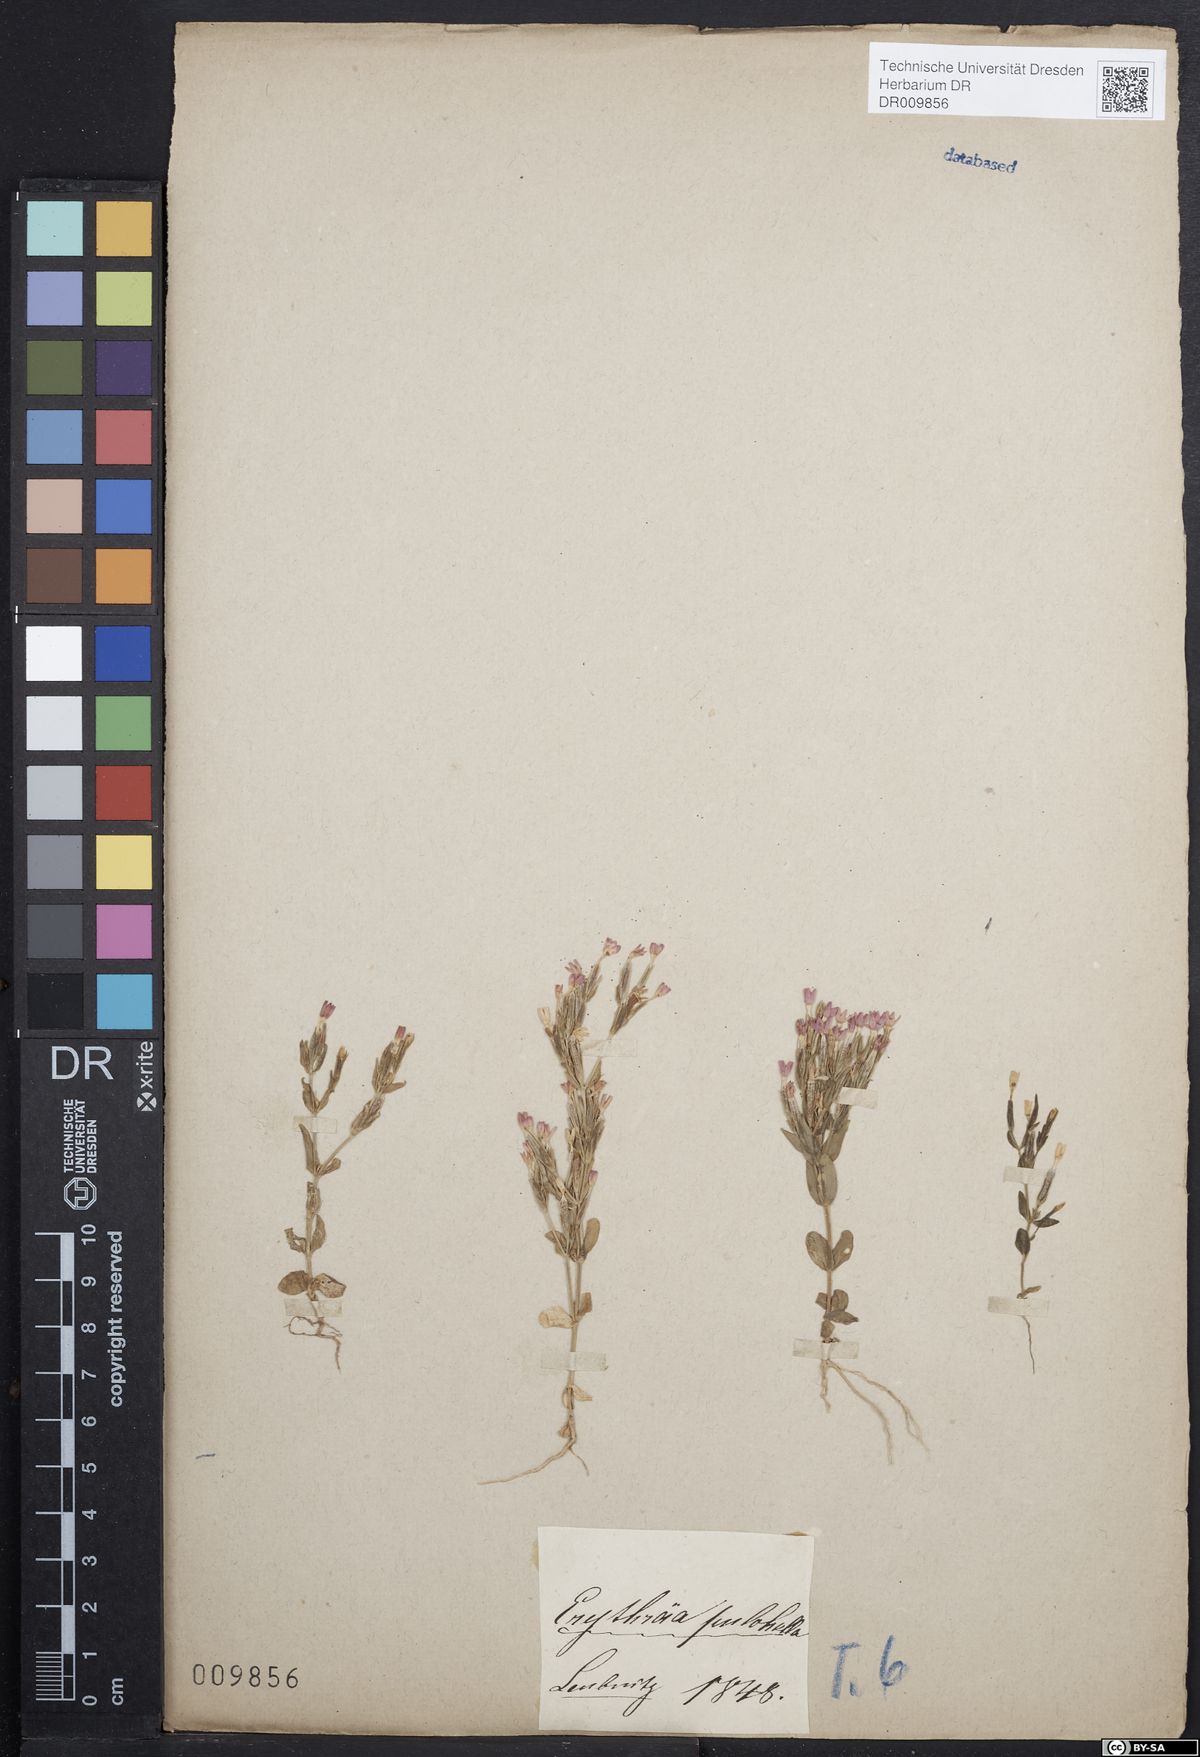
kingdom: Plantae
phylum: Tracheophyta
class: Magnoliopsida
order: Gentianales
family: Gentianaceae
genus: Centaurium
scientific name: Centaurium pulchellum
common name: Lesser centaury
